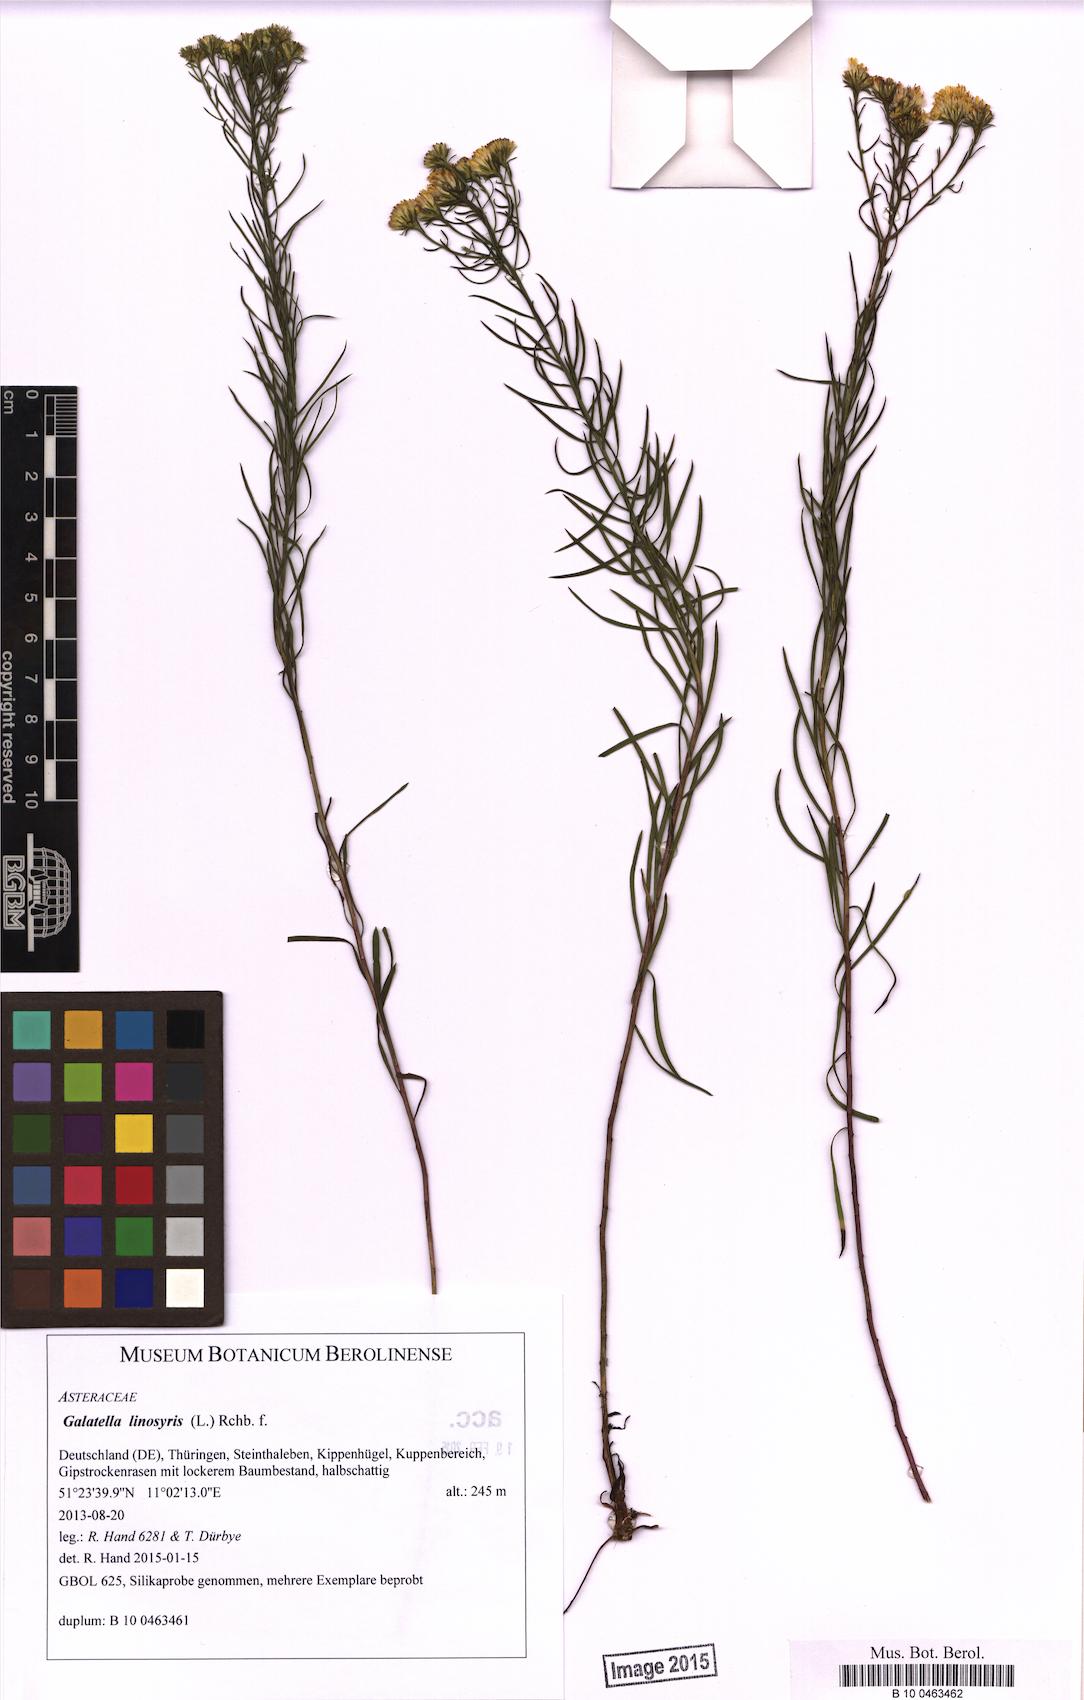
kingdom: Plantae
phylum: Tracheophyta
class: Magnoliopsida
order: Asterales
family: Asteraceae
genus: Galatella
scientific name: Galatella linosyris
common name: Goldilocks aster
